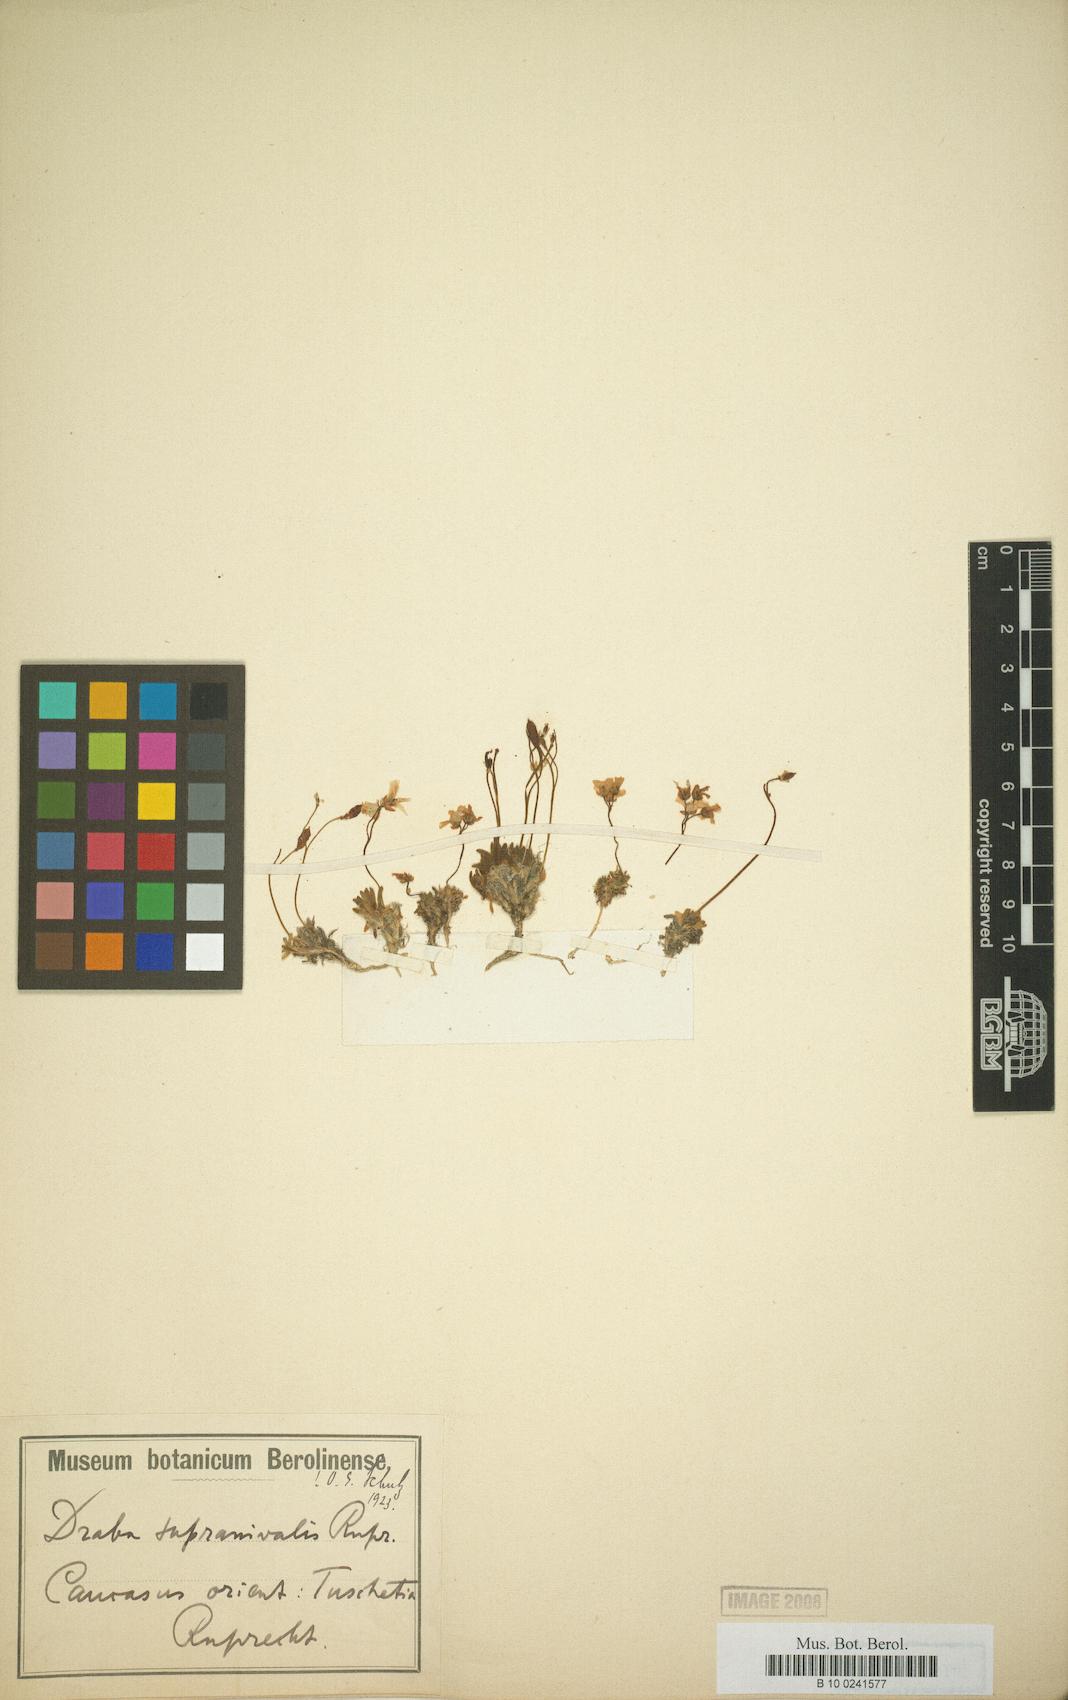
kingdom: Plantae
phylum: Tracheophyta
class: Magnoliopsida
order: Brassicales
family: Brassicaceae
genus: Draba
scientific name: Draba supranivalis
